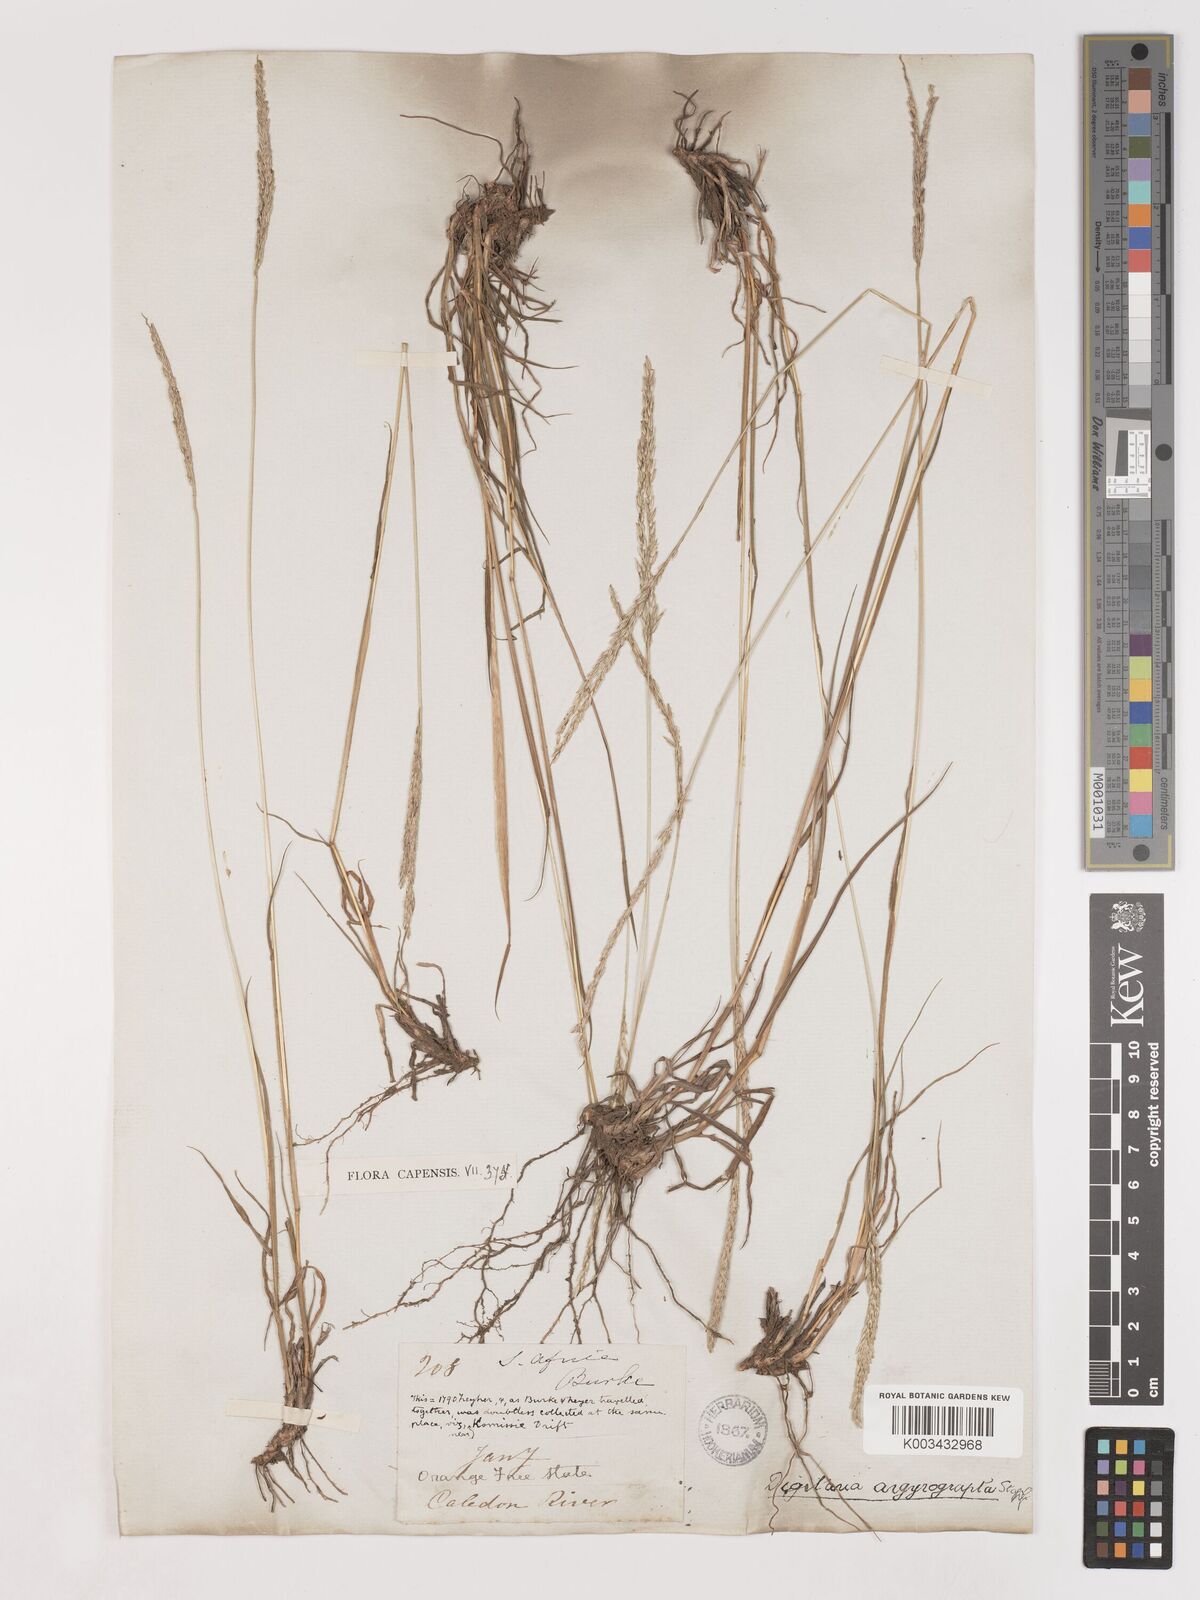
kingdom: Plantae
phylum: Tracheophyta
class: Liliopsida
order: Poales
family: Poaceae
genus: Digitaria
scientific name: Digitaria argyrograpta
